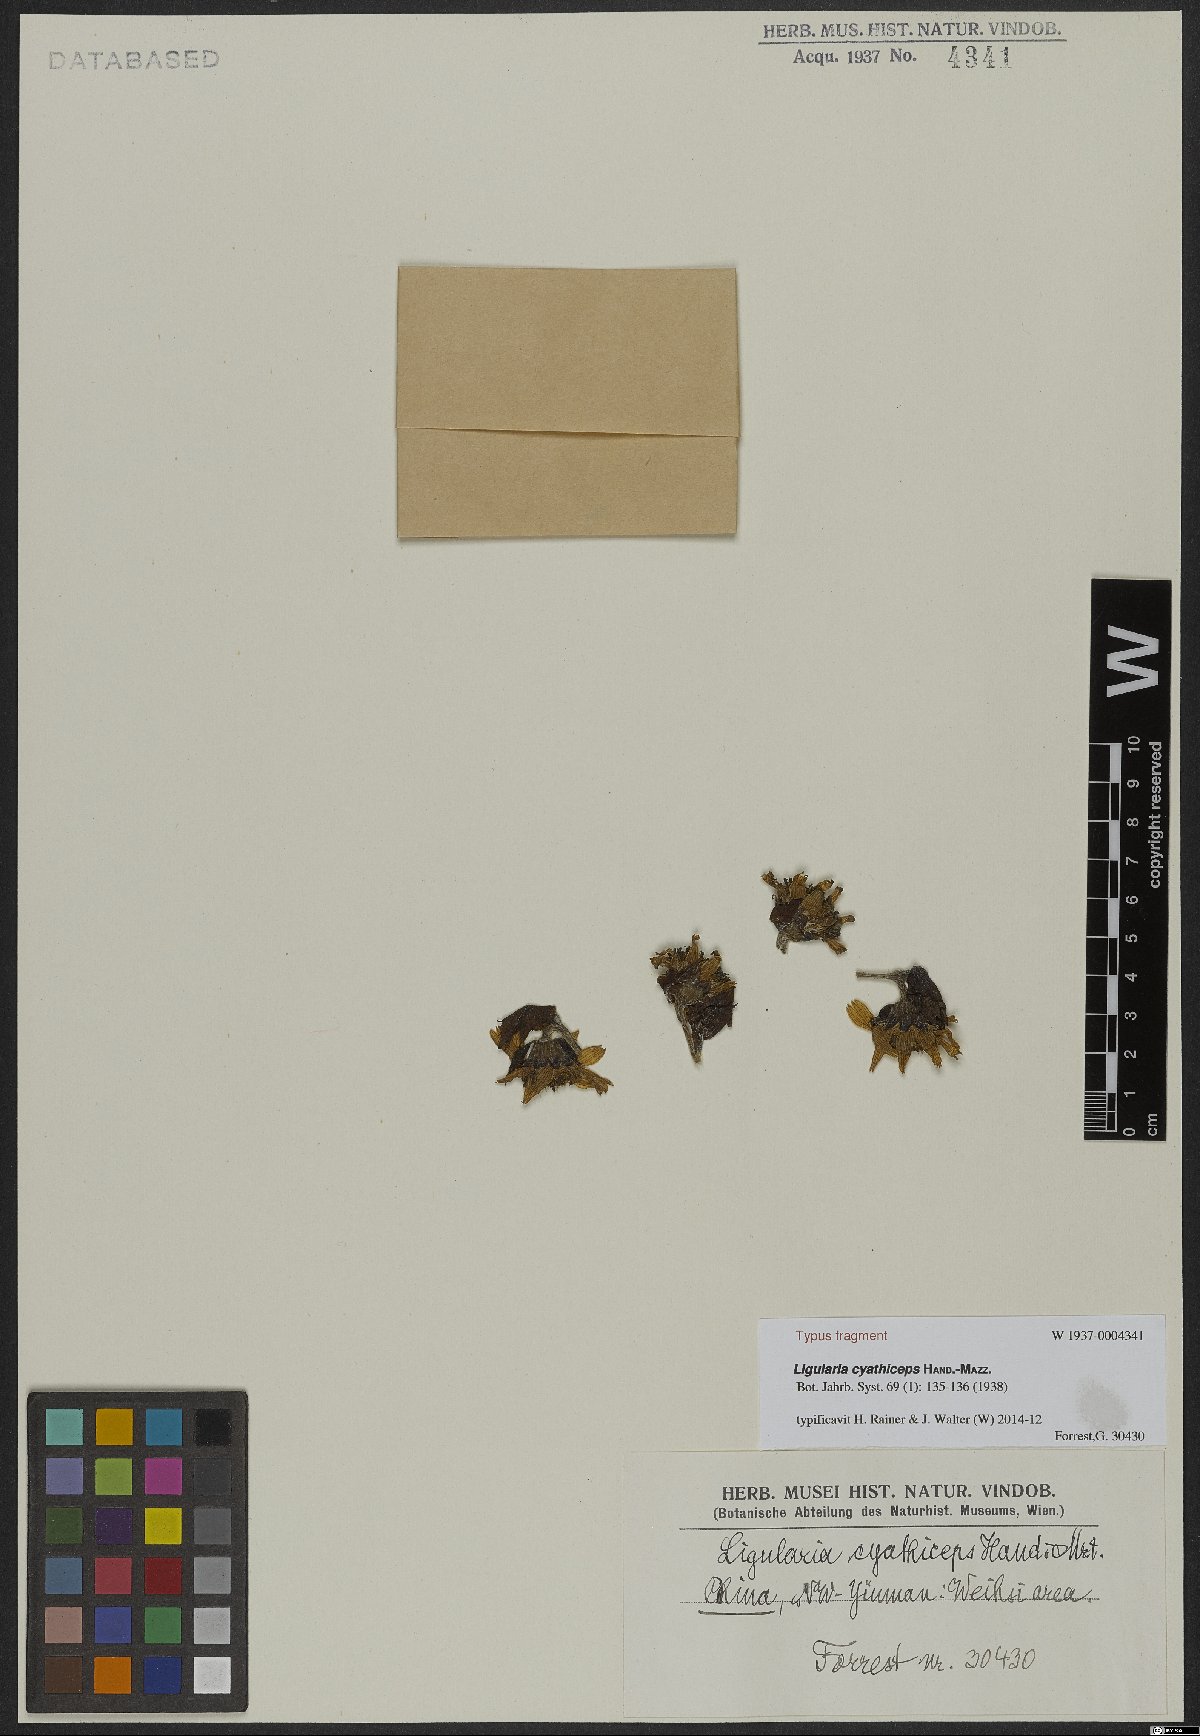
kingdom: Plantae
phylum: Tracheophyta
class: Magnoliopsida
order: Asterales
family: Asteraceae
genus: Ligularia
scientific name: Ligularia cyathiceps
